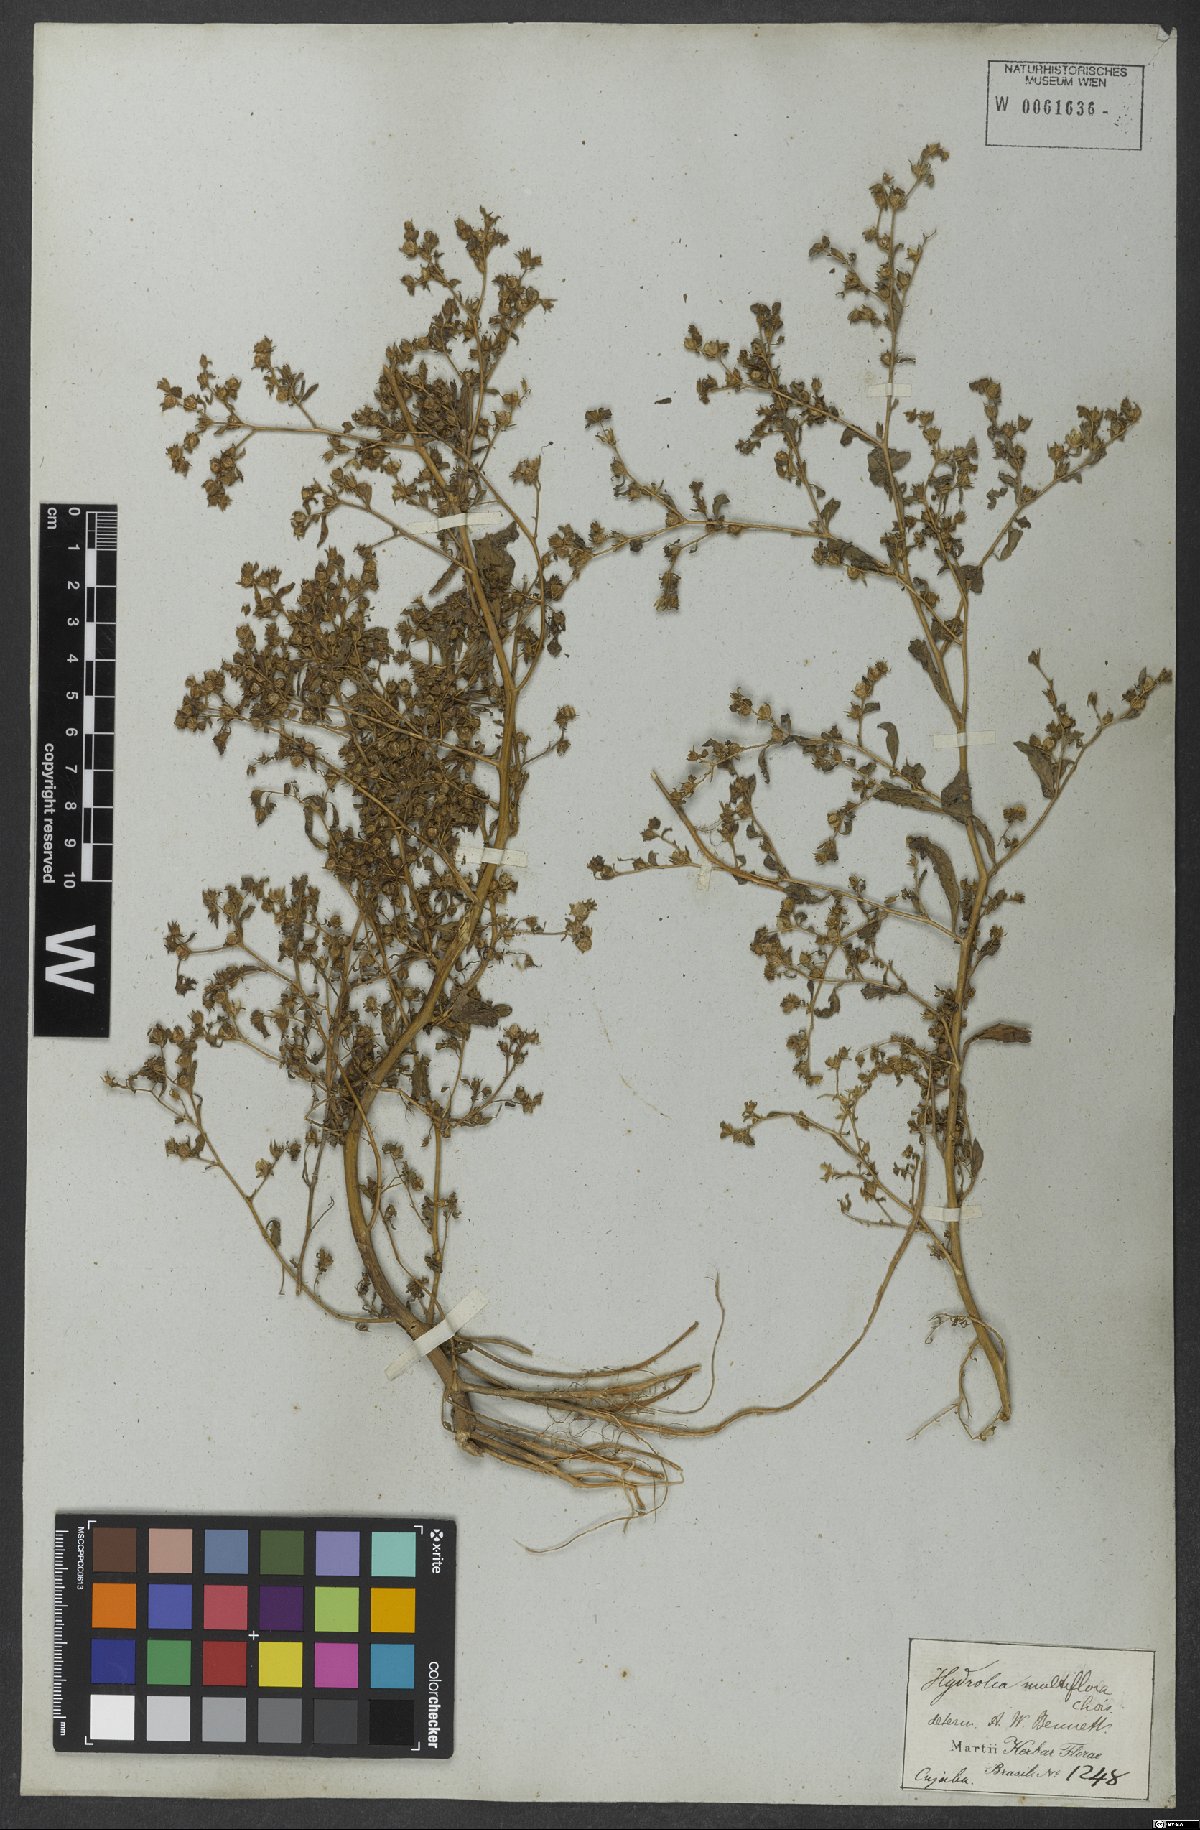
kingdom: Plantae
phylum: Tracheophyta
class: Magnoliopsida
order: Solanales
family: Hydroleaceae
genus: Hydrolea
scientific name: Hydrolea elatior
